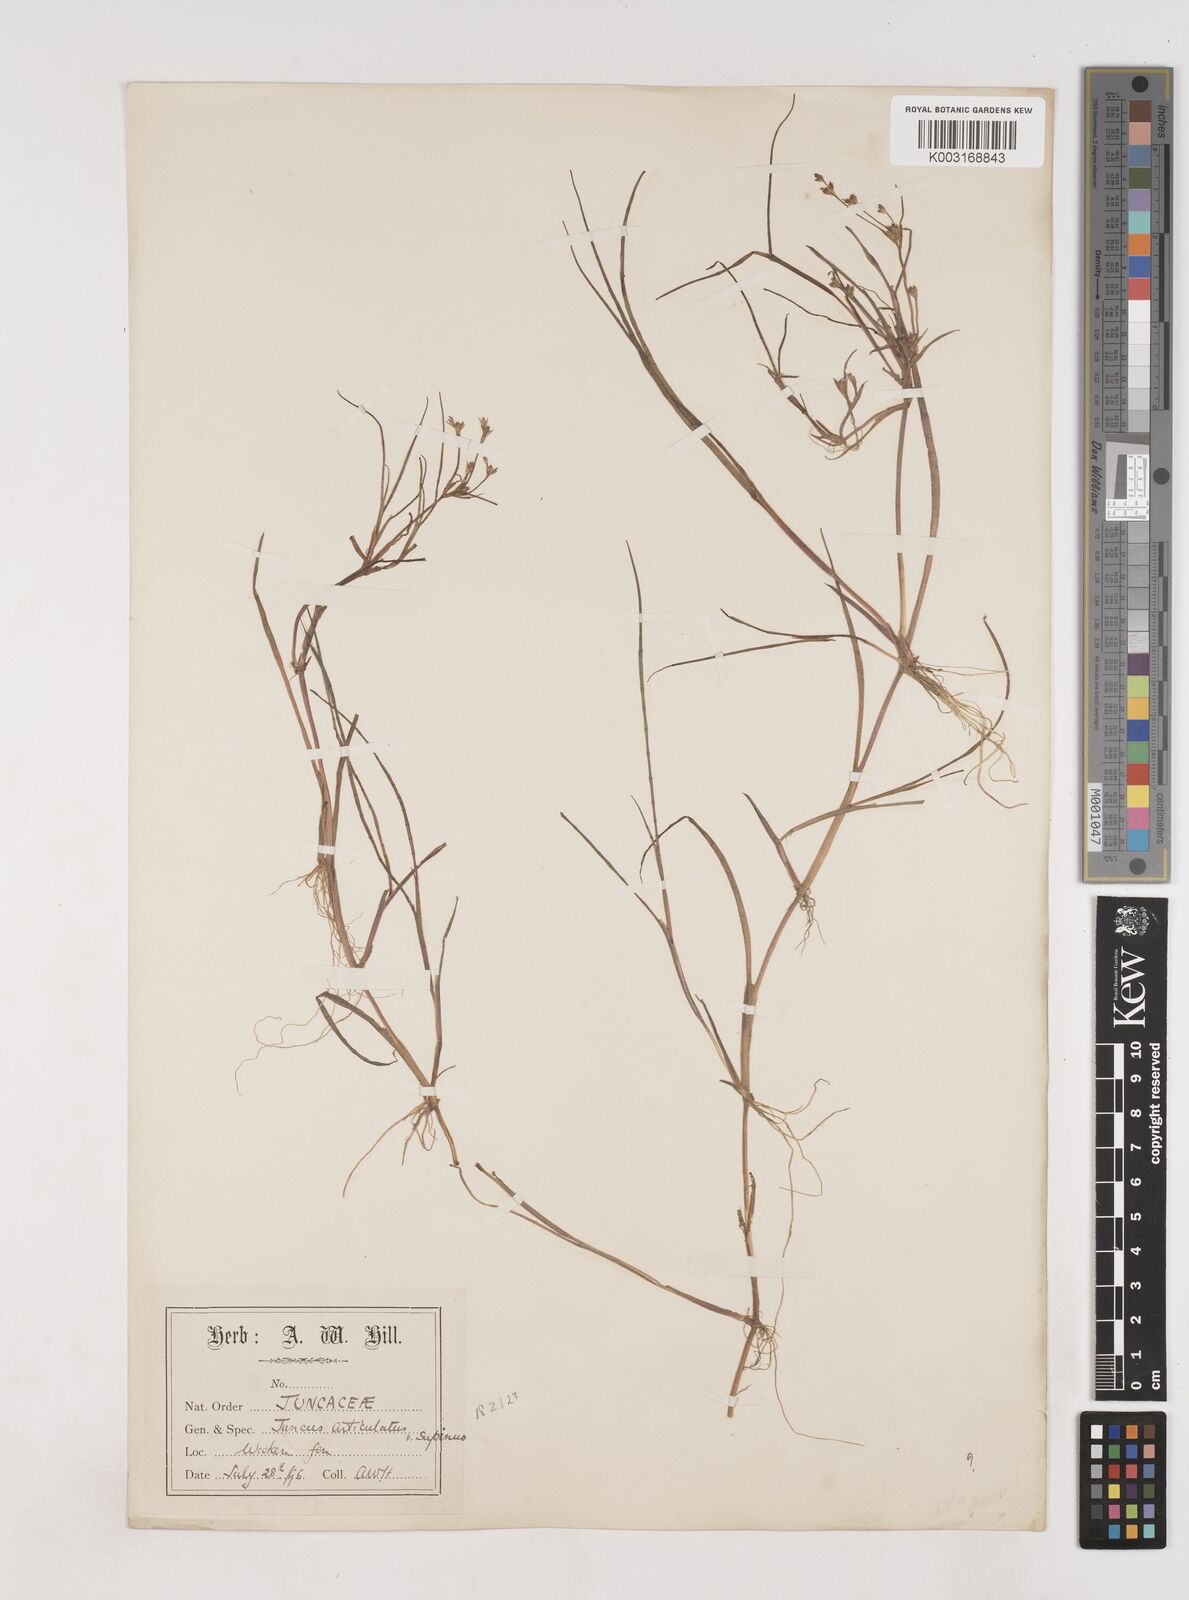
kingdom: Plantae
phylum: Tracheophyta
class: Liliopsida
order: Poales
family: Juncaceae
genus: Juncus
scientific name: Juncus bulbosus
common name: Bulbous rush
